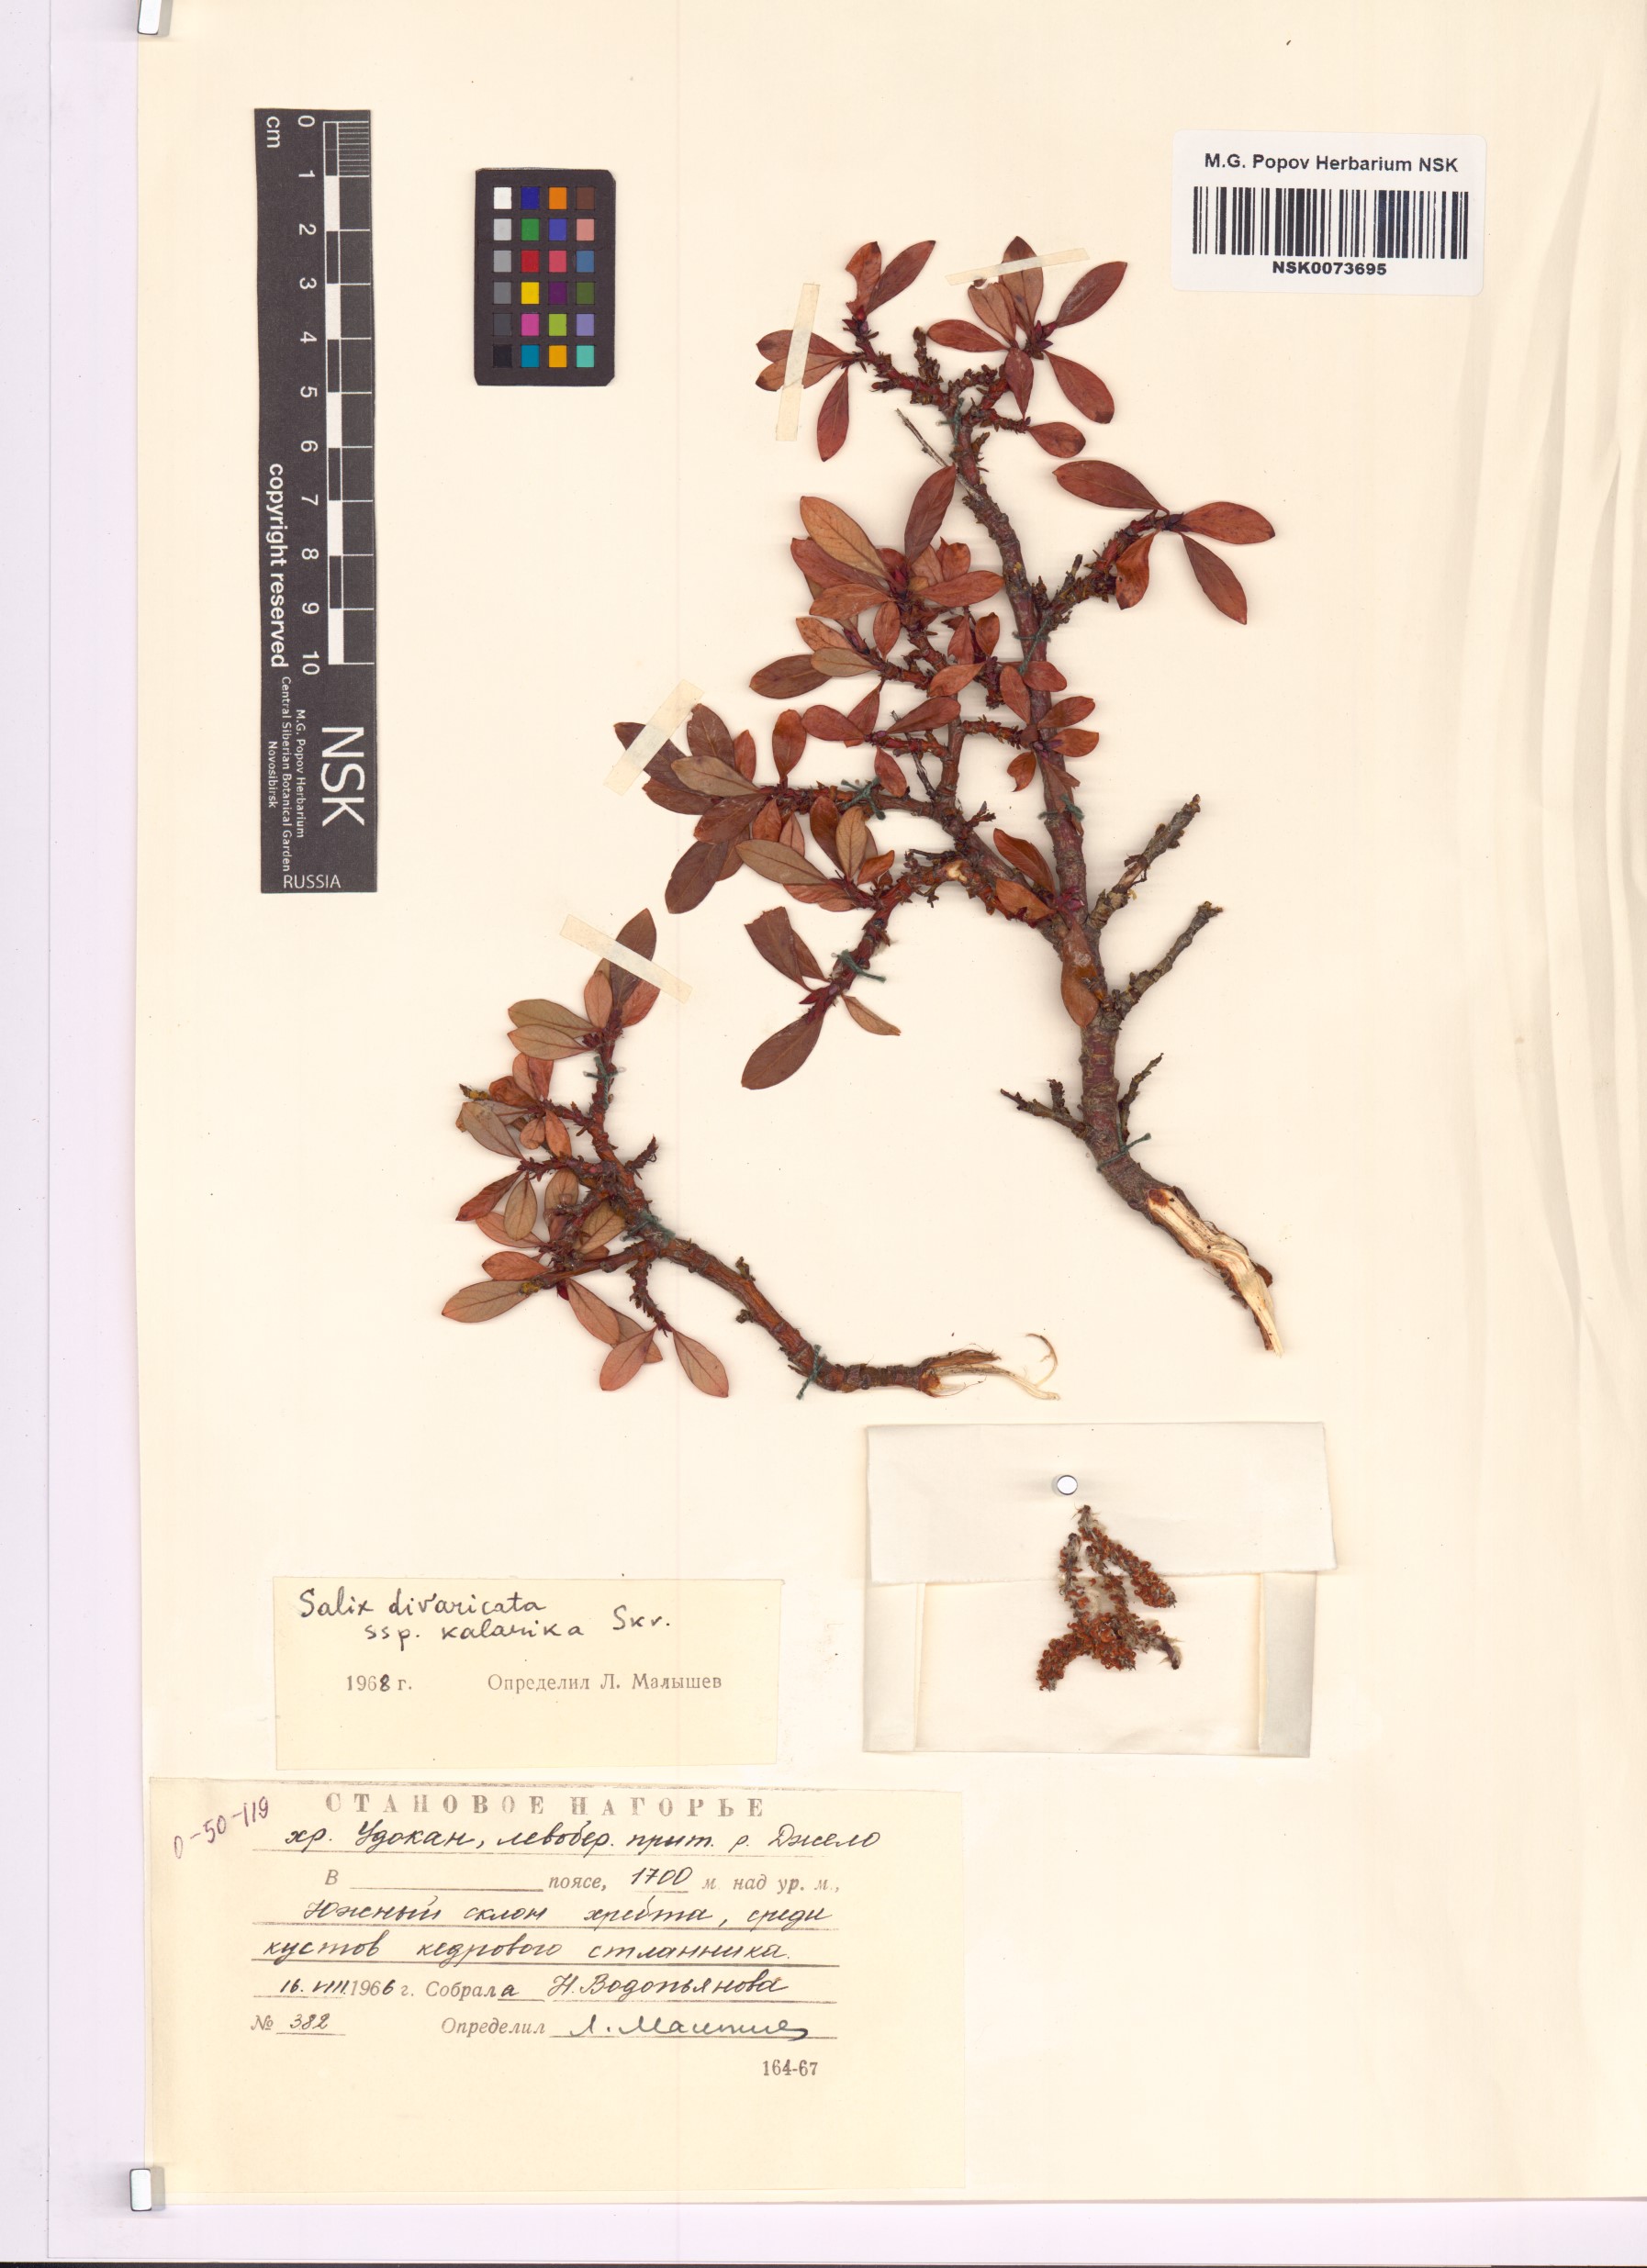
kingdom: Plantae
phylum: Tracheophyta
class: Magnoliopsida
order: Malpighiales
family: Salicaceae
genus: Salix
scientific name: Salix kalarica
